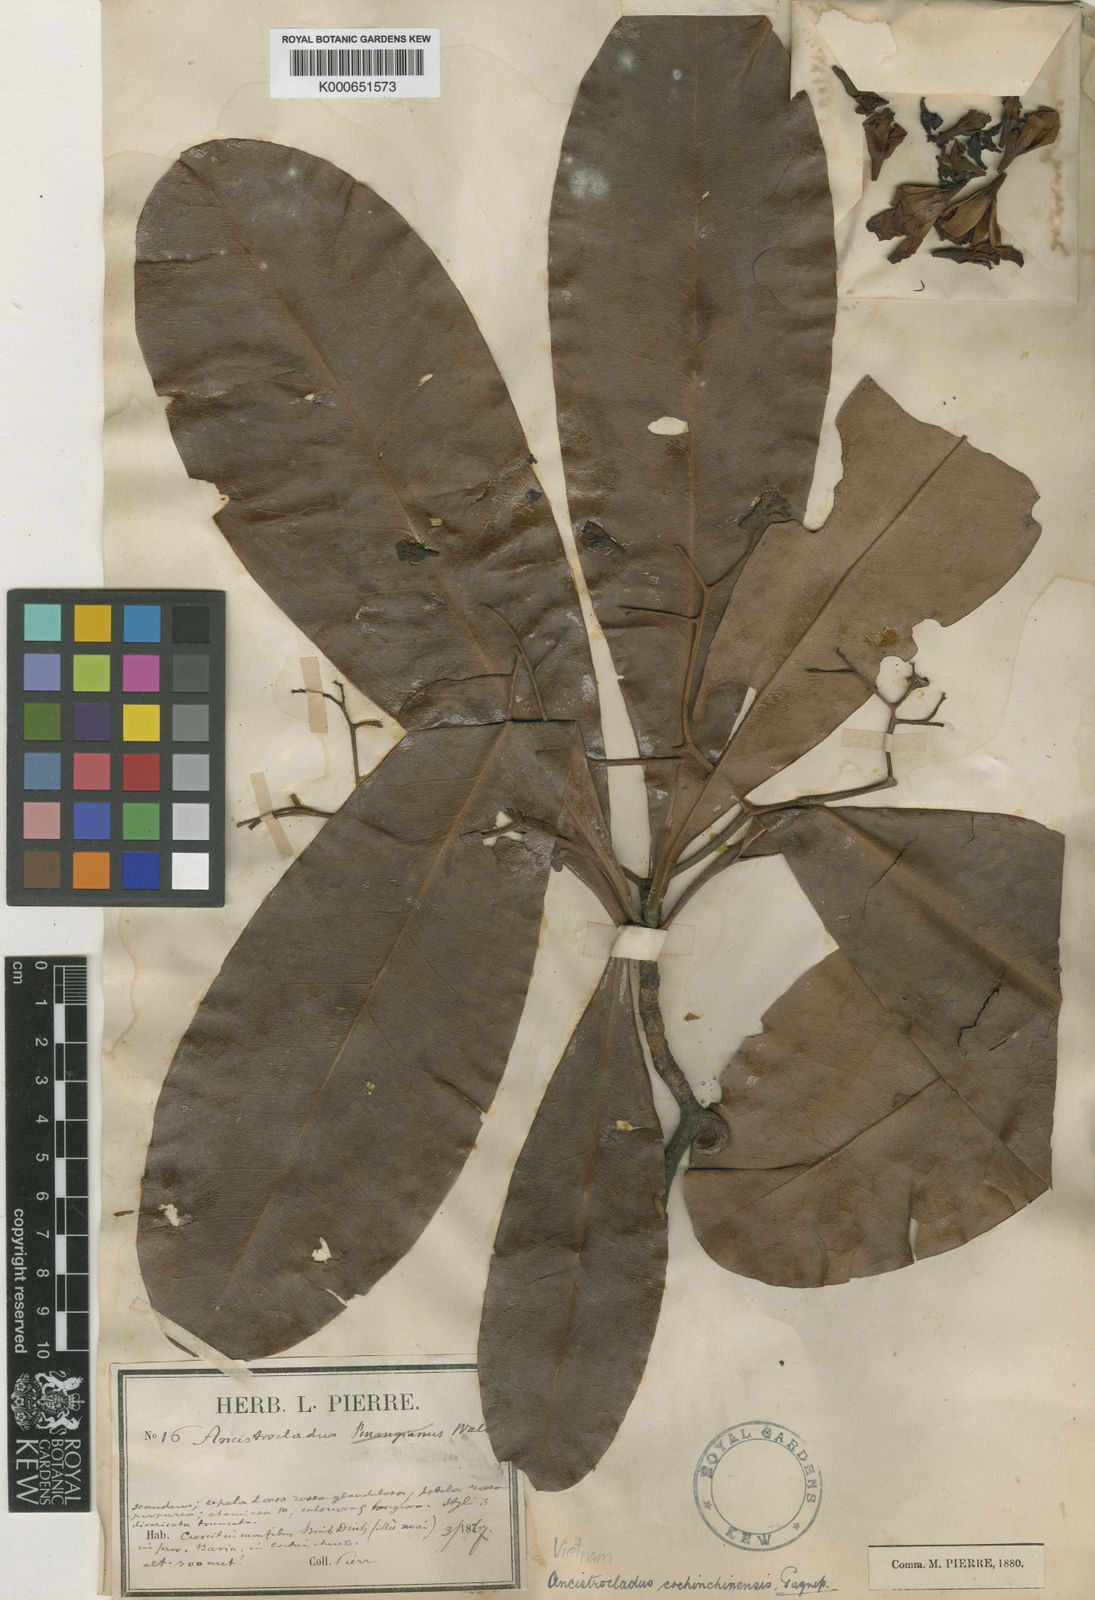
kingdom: Plantae
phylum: Tracheophyta
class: Magnoliopsida
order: Caryophyllales
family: Ancistrocladaceae
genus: Ancistrocladus
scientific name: Ancistrocladus tectorius
